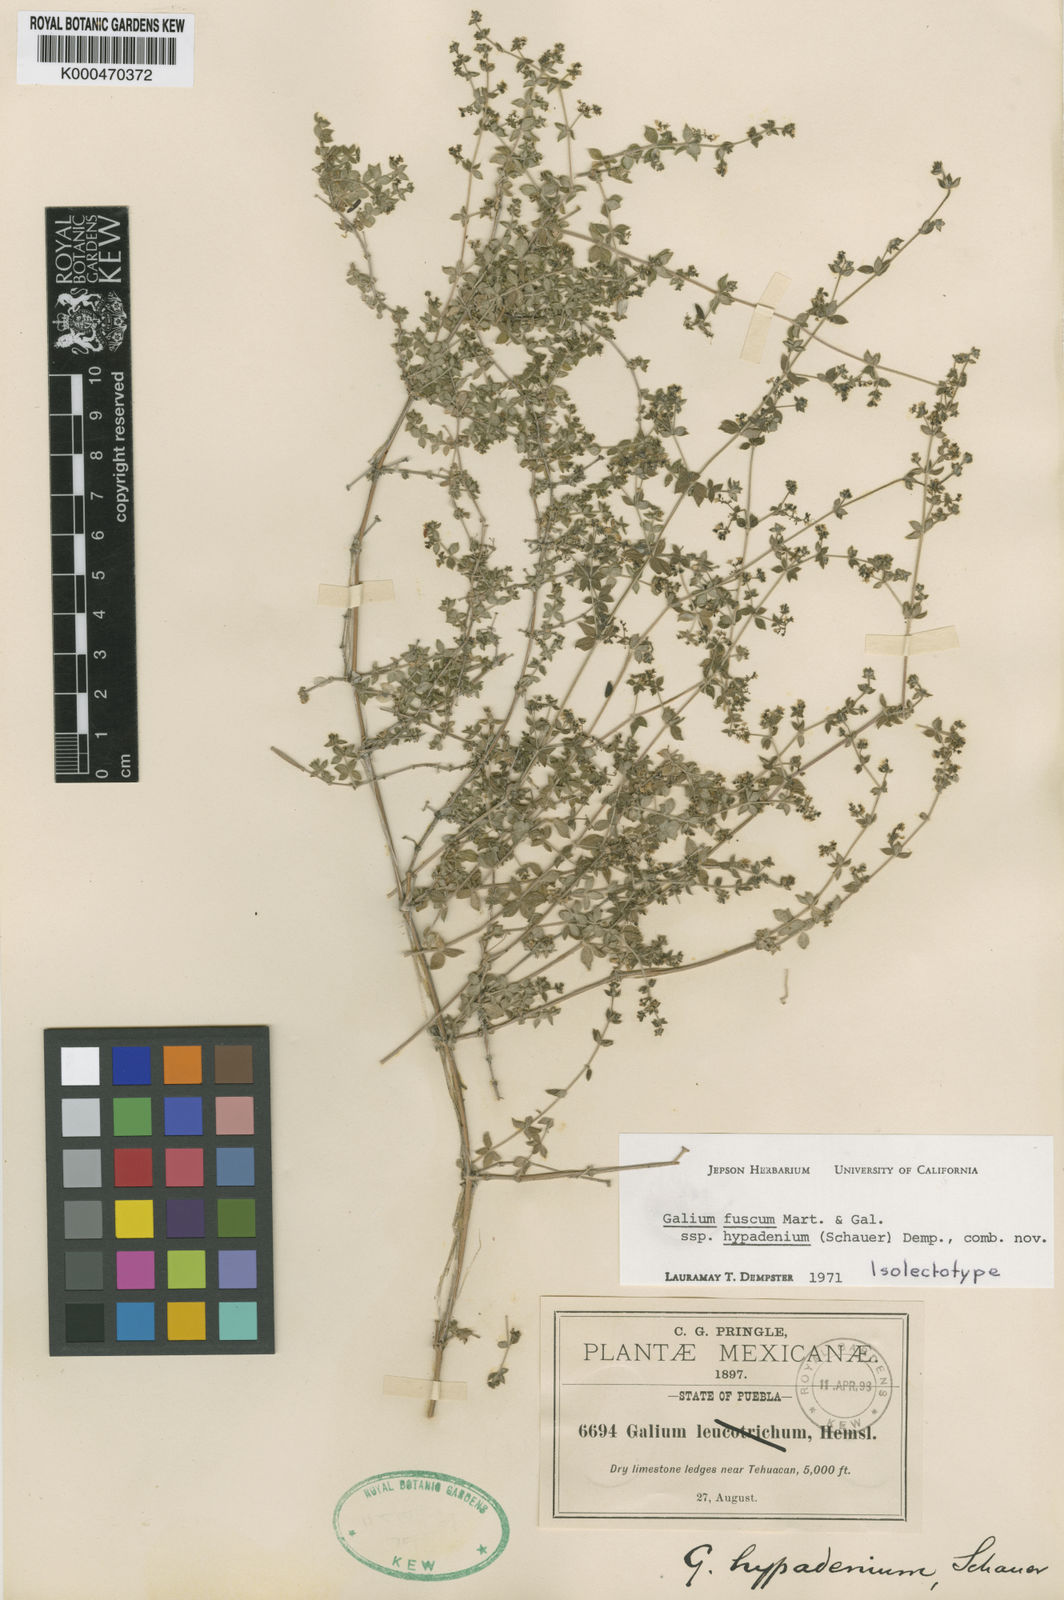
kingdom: Plantae
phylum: Tracheophyta
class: Magnoliopsida
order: Gentianales
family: Rubiaceae
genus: Galium
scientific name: Galium fuscum
